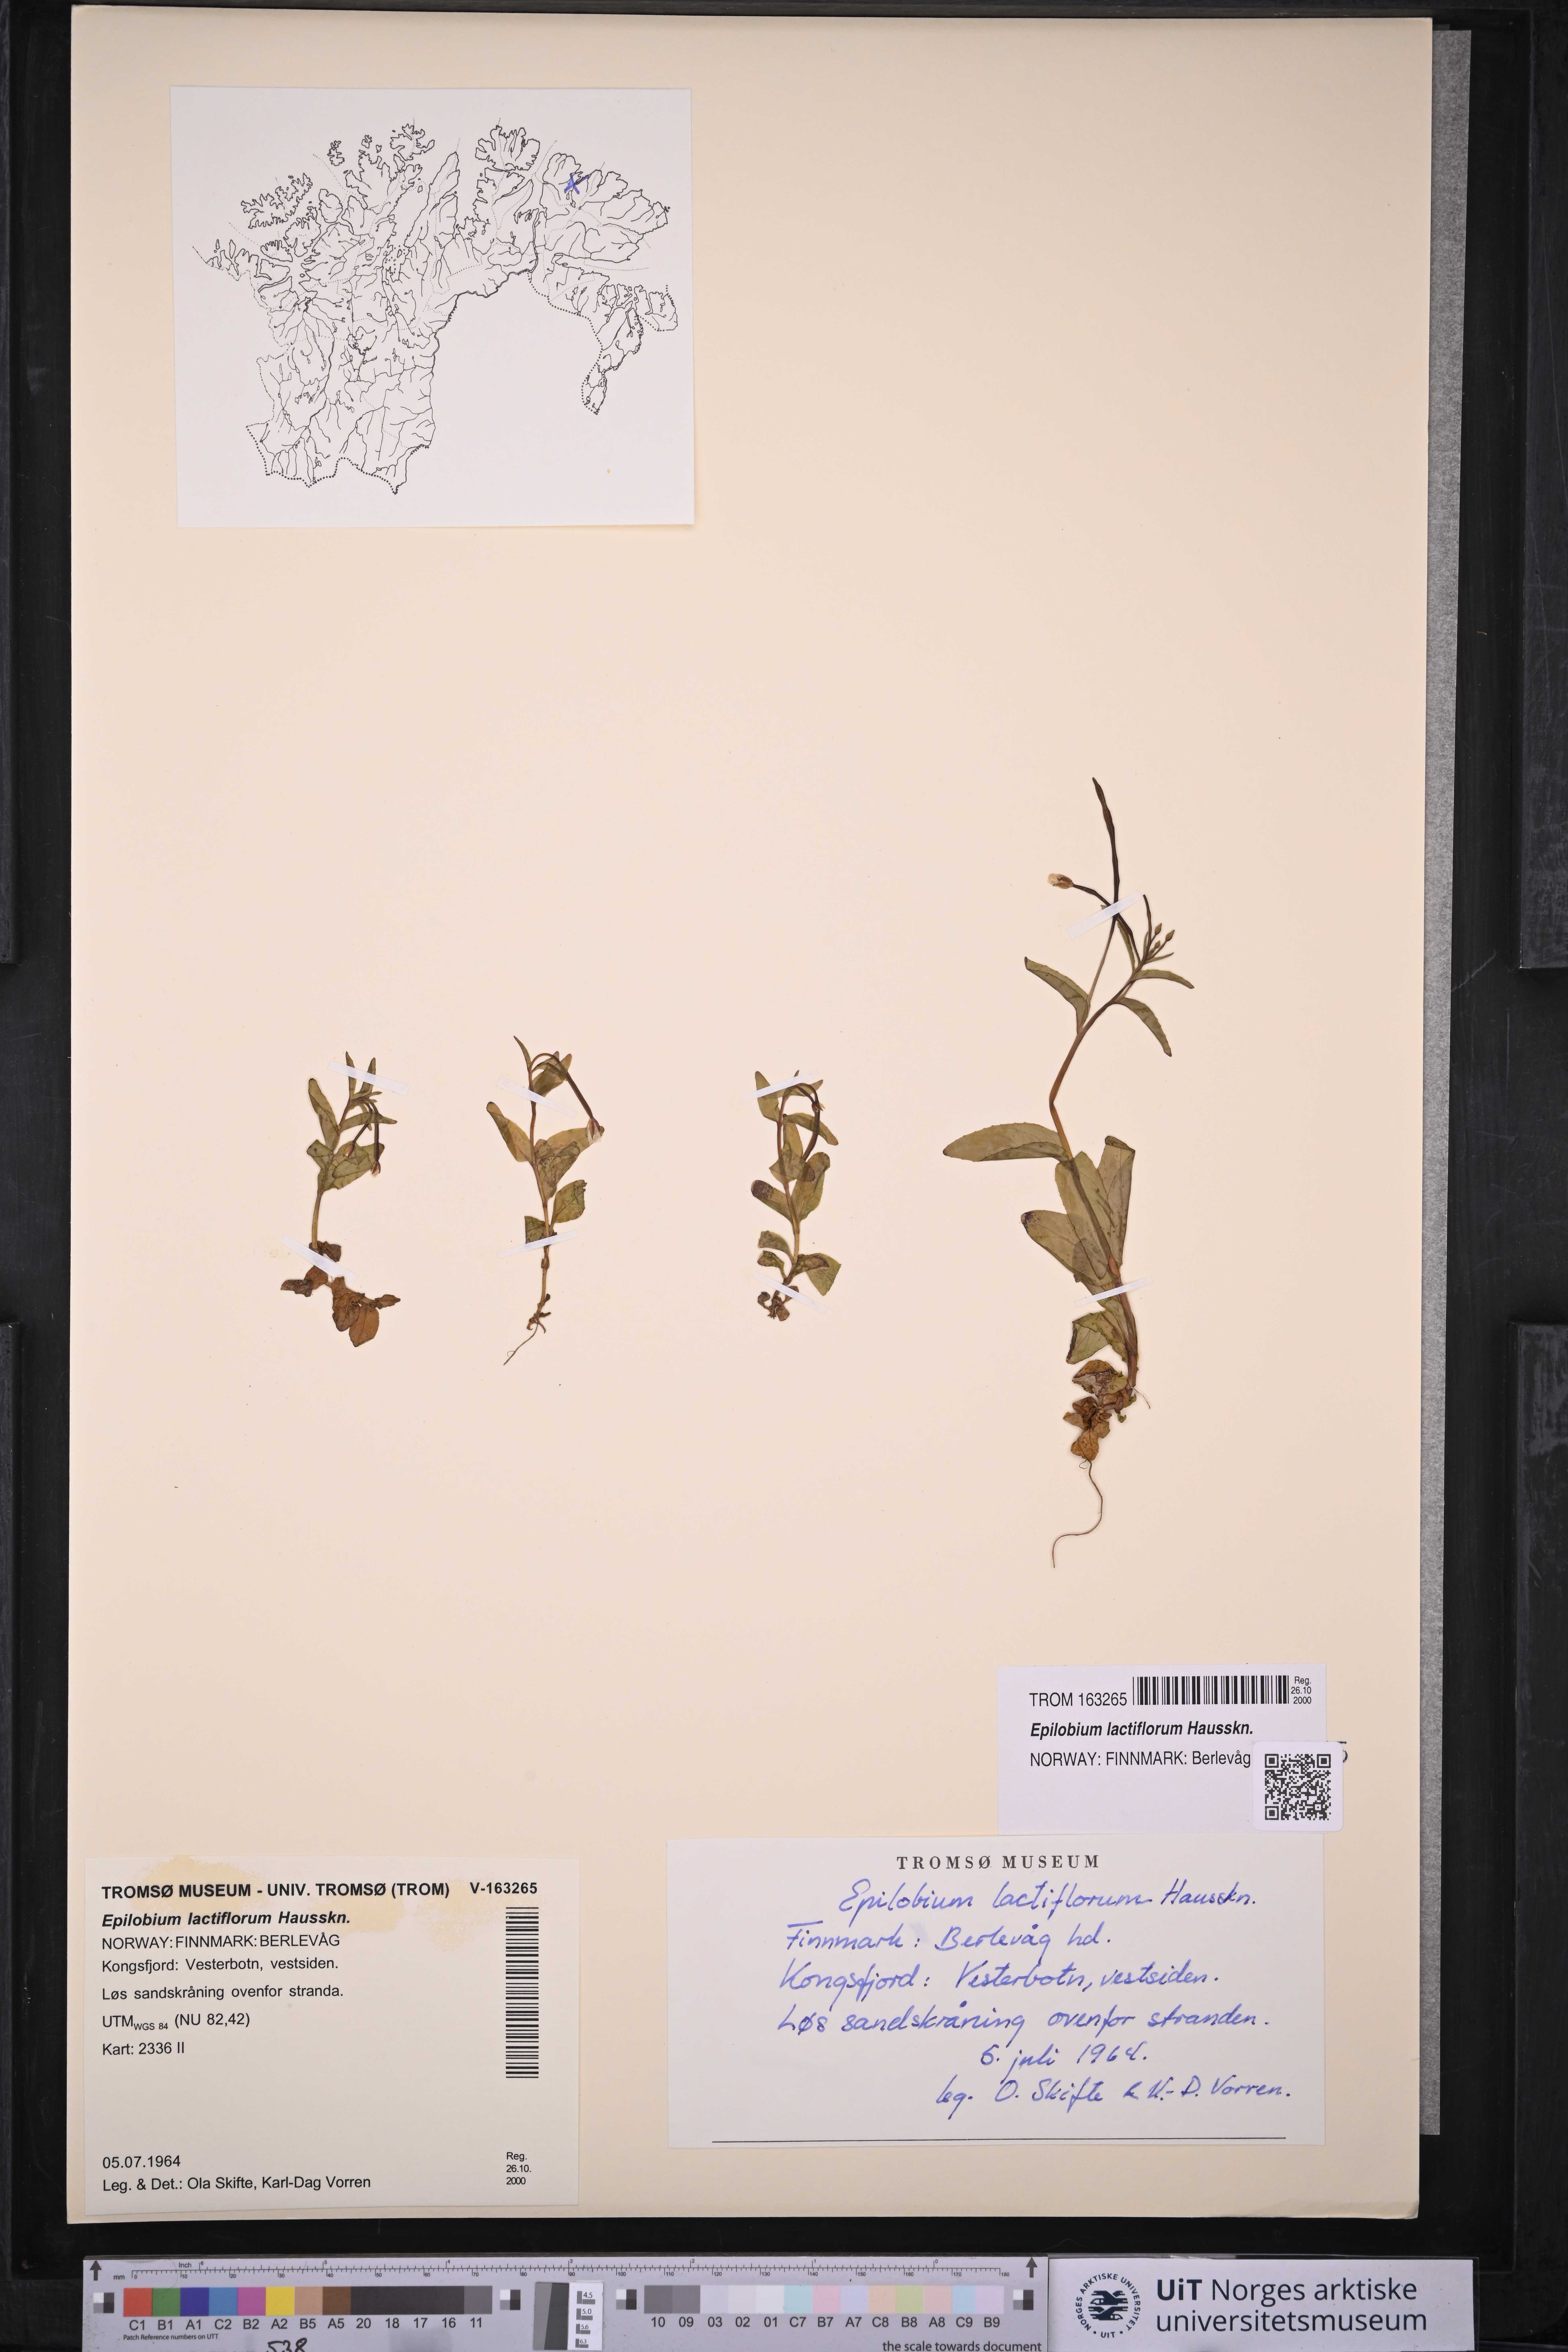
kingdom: Plantae
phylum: Tracheophyta
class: Magnoliopsida
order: Myrtales
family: Onagraceae
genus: Epilobium
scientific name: Epilobium lactiflorum
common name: Milkflower willowherb
